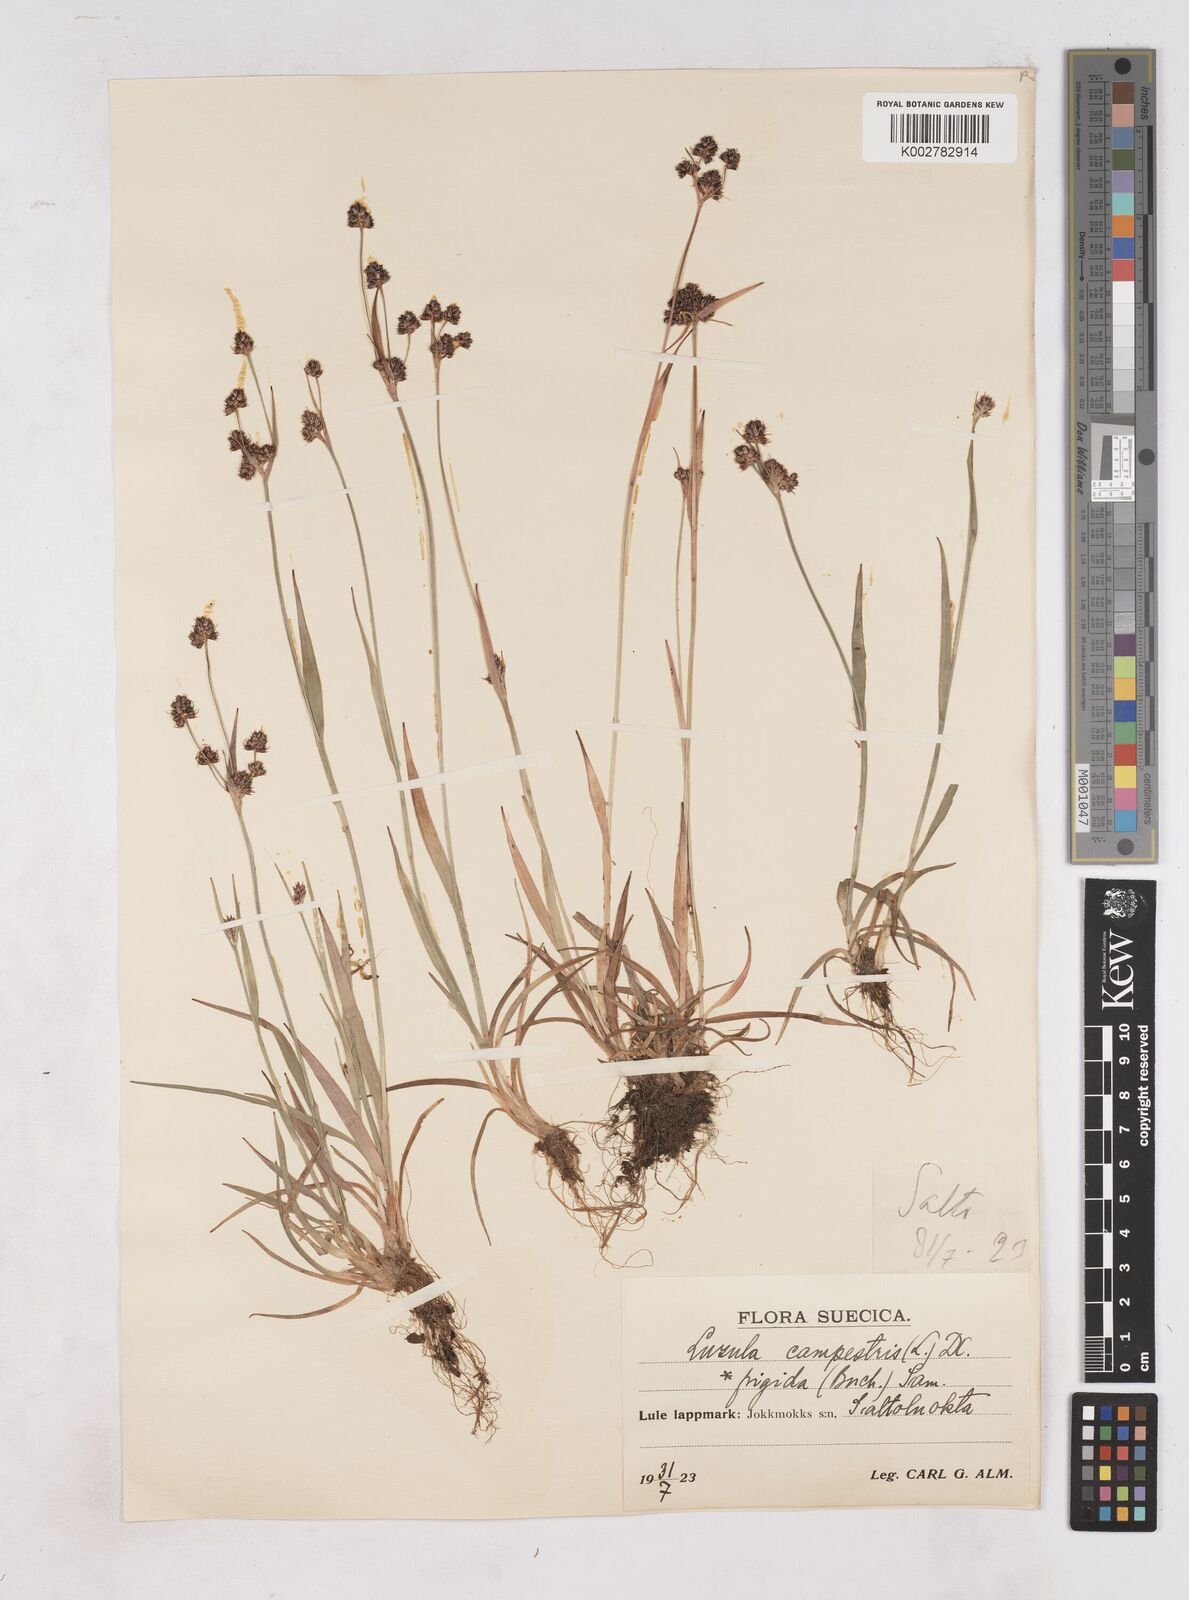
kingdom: Plantae
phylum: Tracheophyta
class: Liliopsida
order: Poales
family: Juncaceae
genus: Luzula
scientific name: Luzula campestris
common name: Field wood-rush
